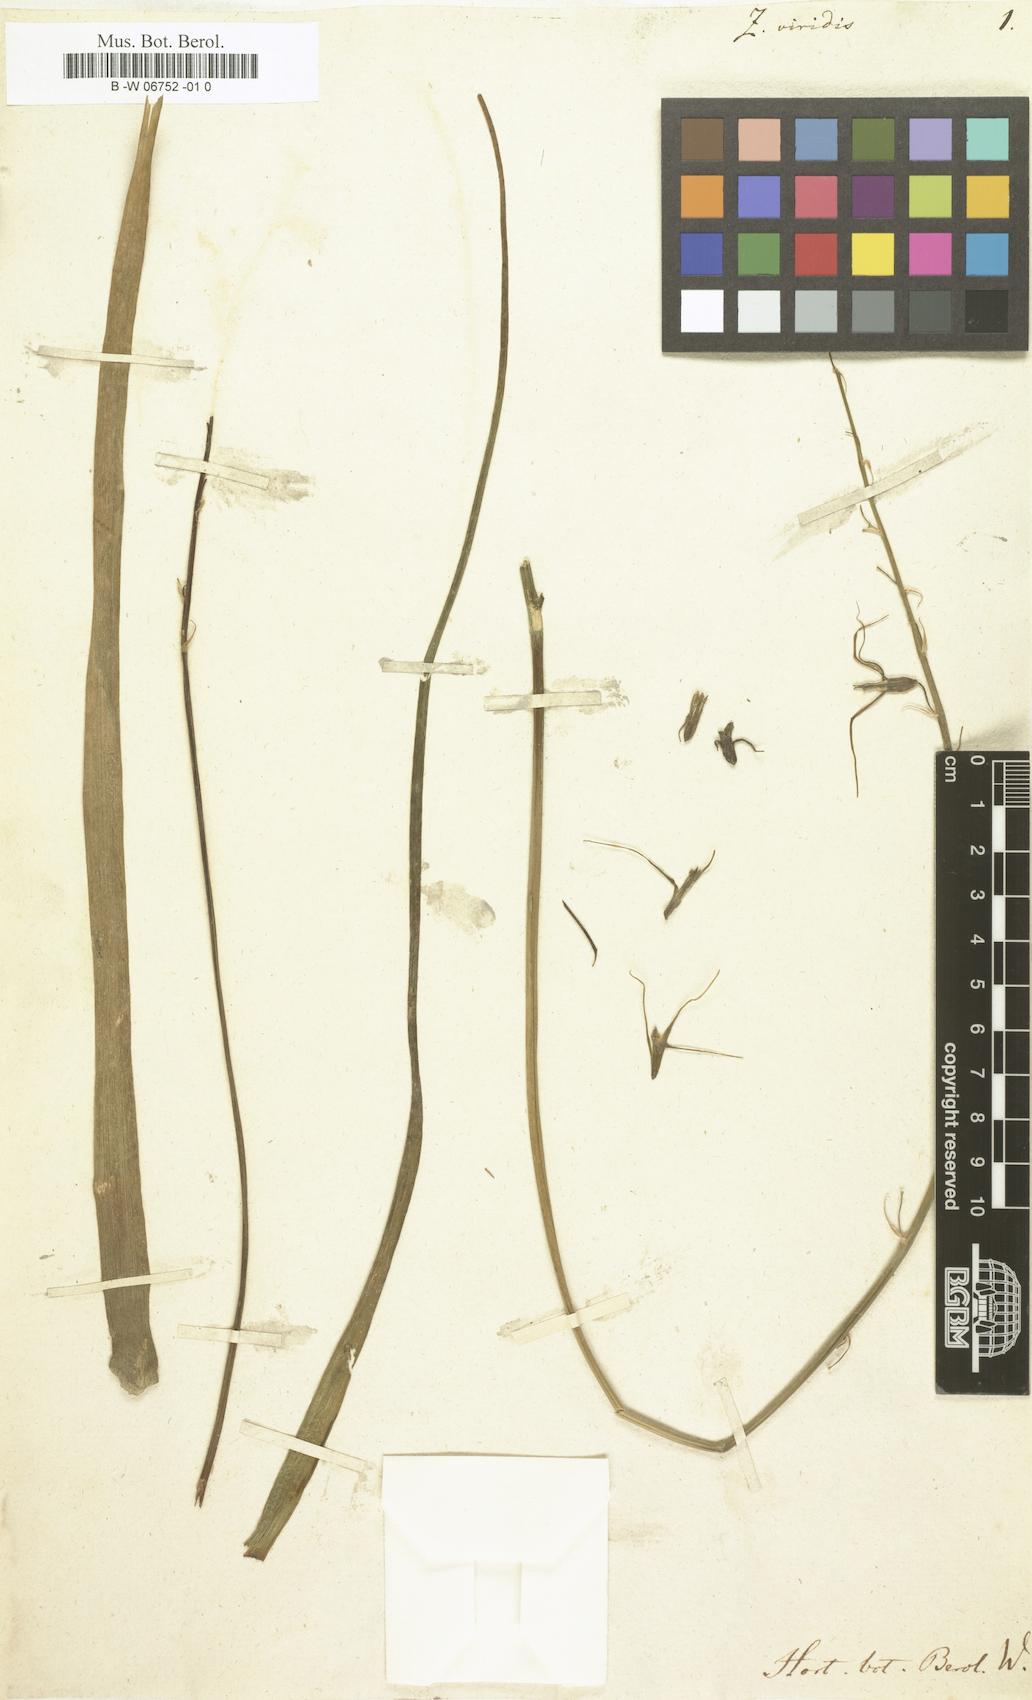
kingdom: Plantae
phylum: Tracheophyta
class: Liliopsida
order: Asparagales
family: Asparagaceae
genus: Dipcadi
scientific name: Dipcadi viride
